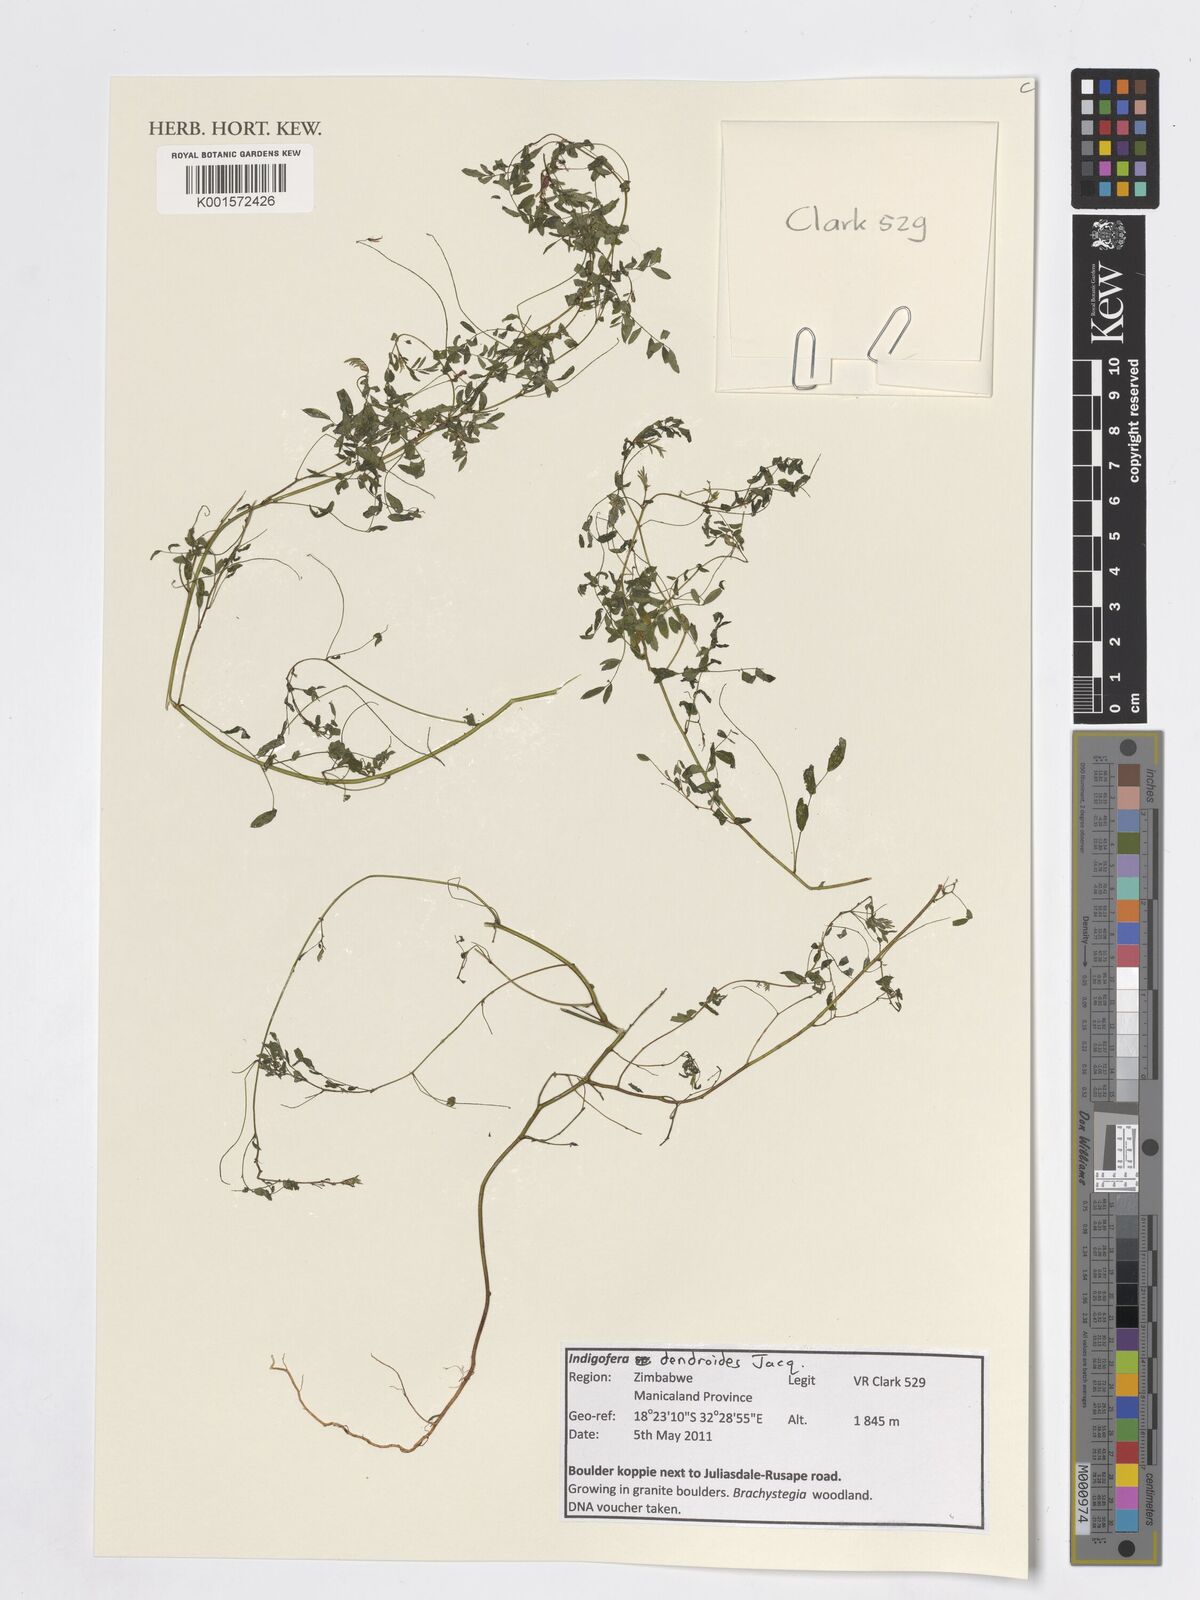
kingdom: Plantae
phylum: Tracheophyta
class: Magnoliopsida
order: Fabales
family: Fabaceae
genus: Indigofera
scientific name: Indigofera dendroides
